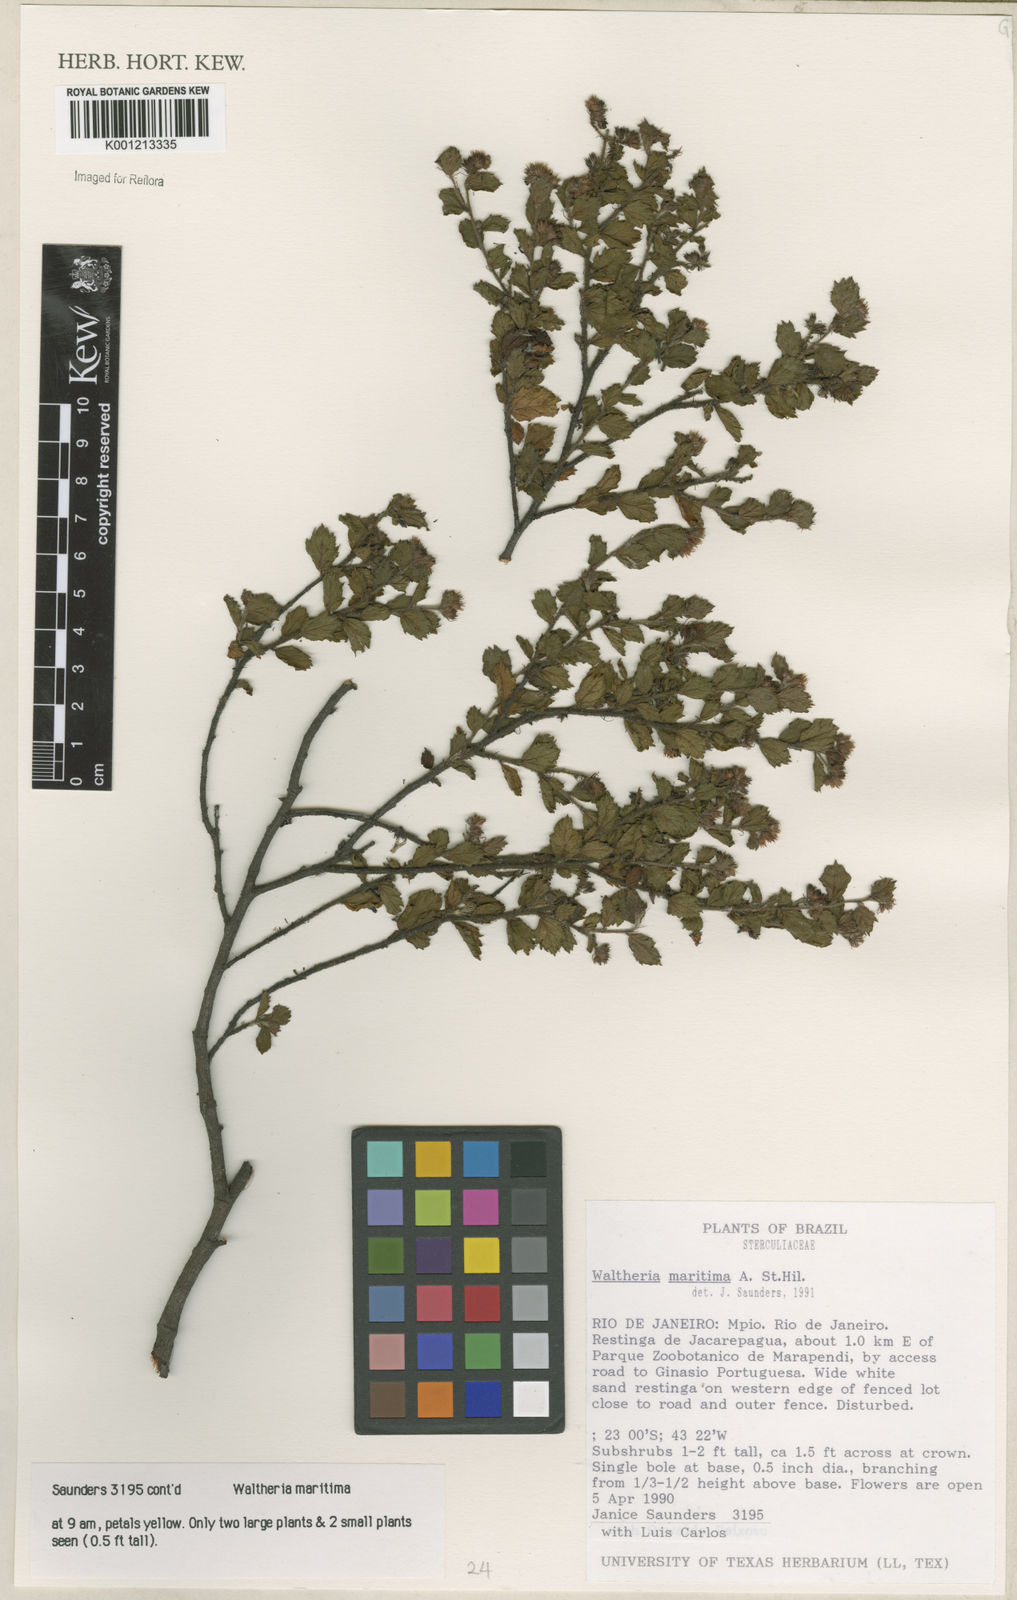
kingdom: Plantae
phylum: Tracheophyta
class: Magnoliopsida
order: Malvales
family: Malvaceae
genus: Waltheria
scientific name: Waltheria maritima
